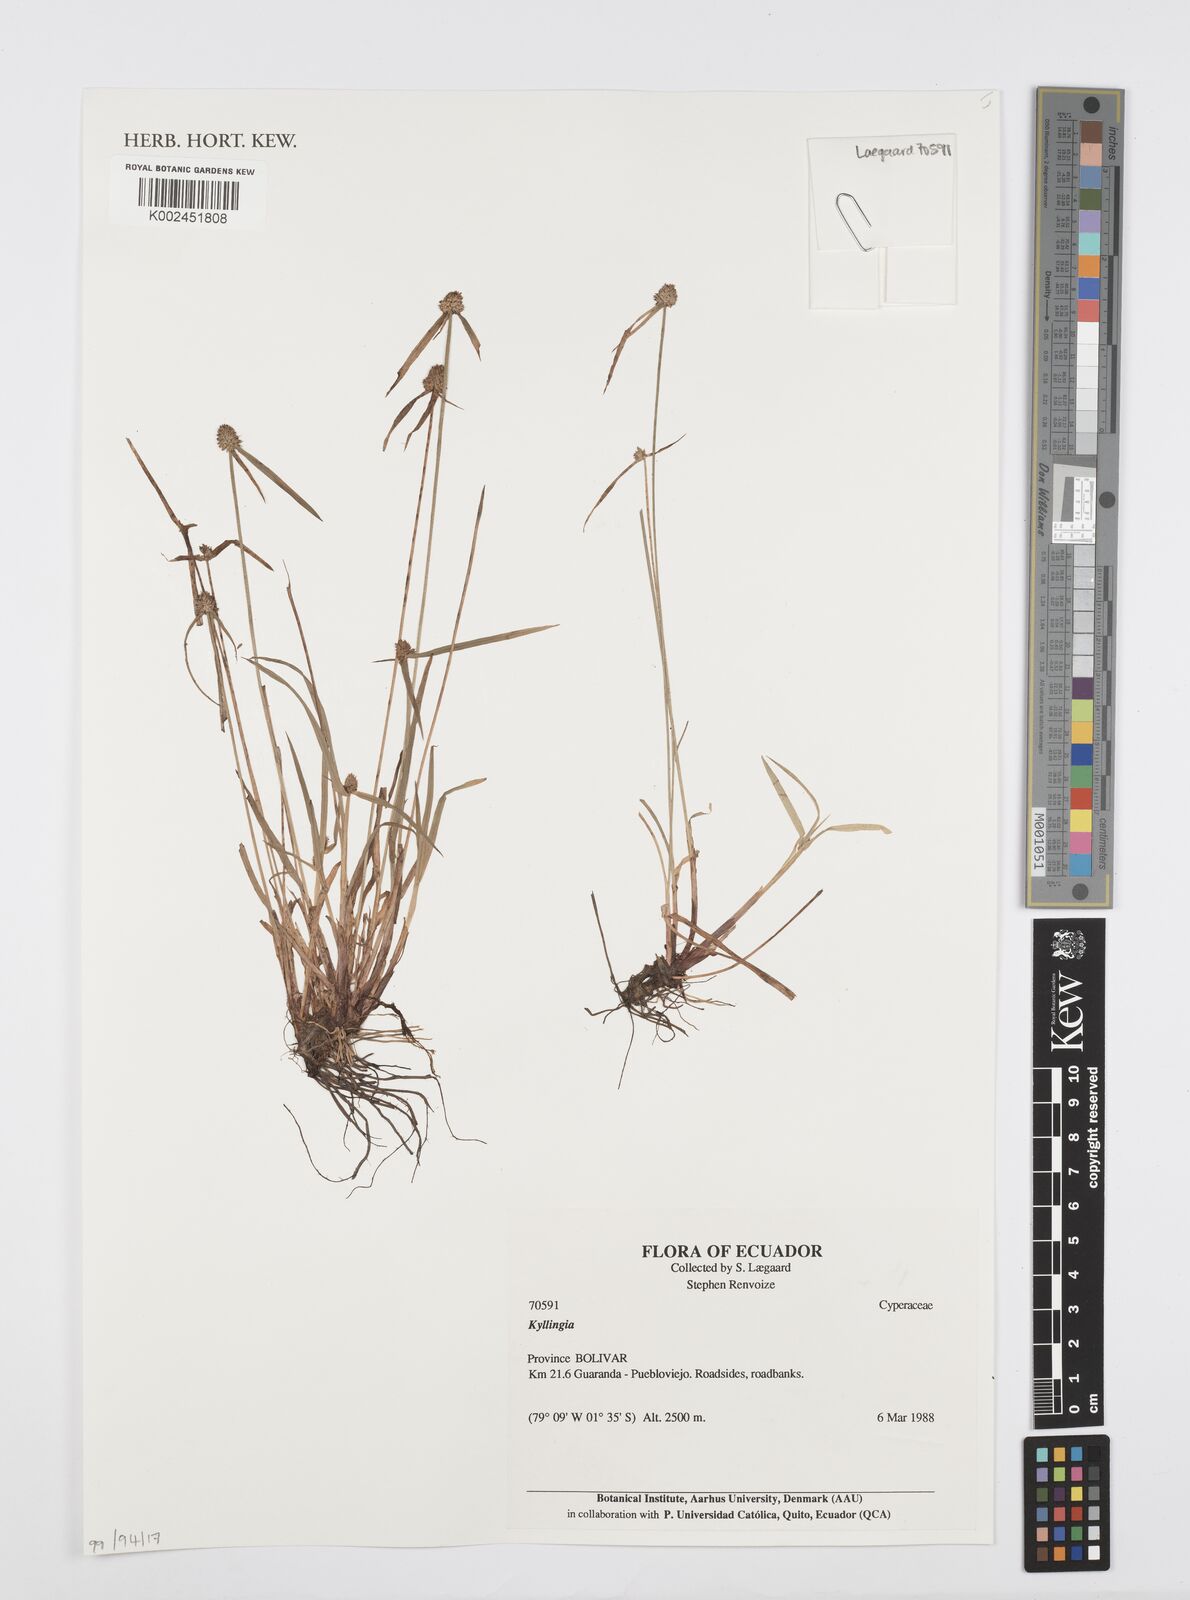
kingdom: Plantae
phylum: Tracheophyta
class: Liliopsida
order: Poales
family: Cyperaceae
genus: Cyperus
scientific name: Cyperus
